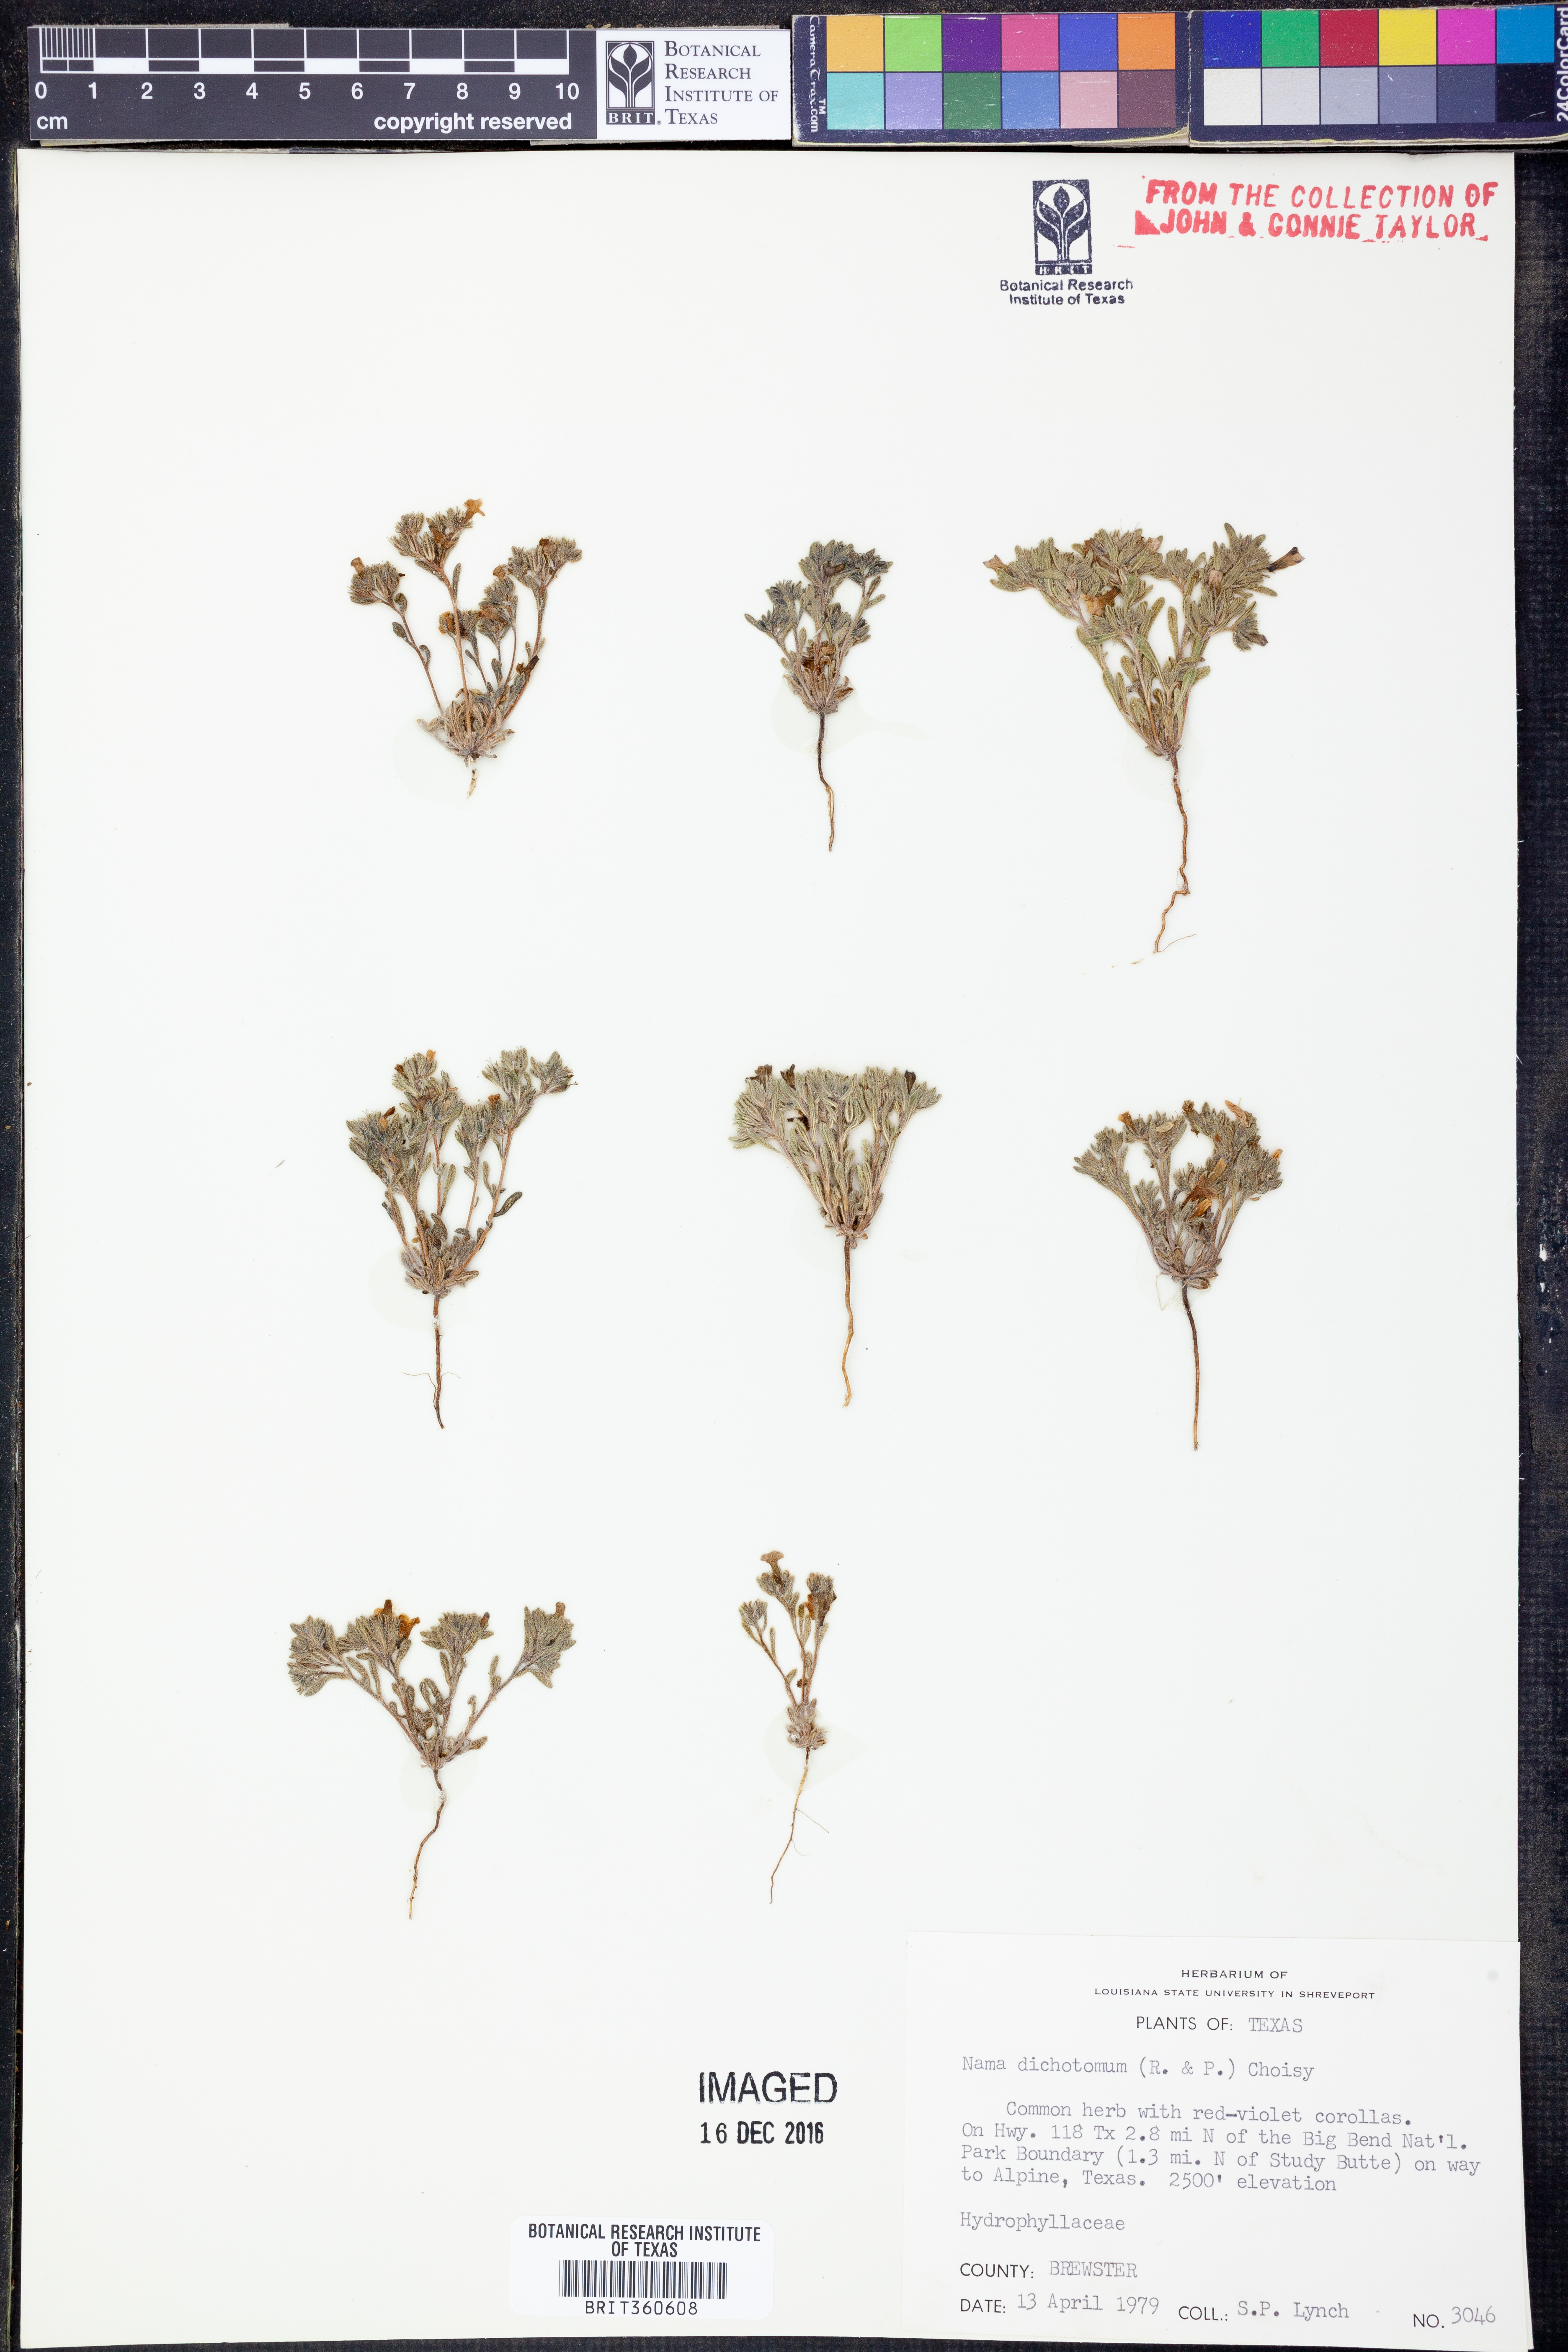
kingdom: Plantae
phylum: Tracheophyta
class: Magnoliopsida
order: Boraginales
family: Namaceae
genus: Nama
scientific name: Nama dichotoma
